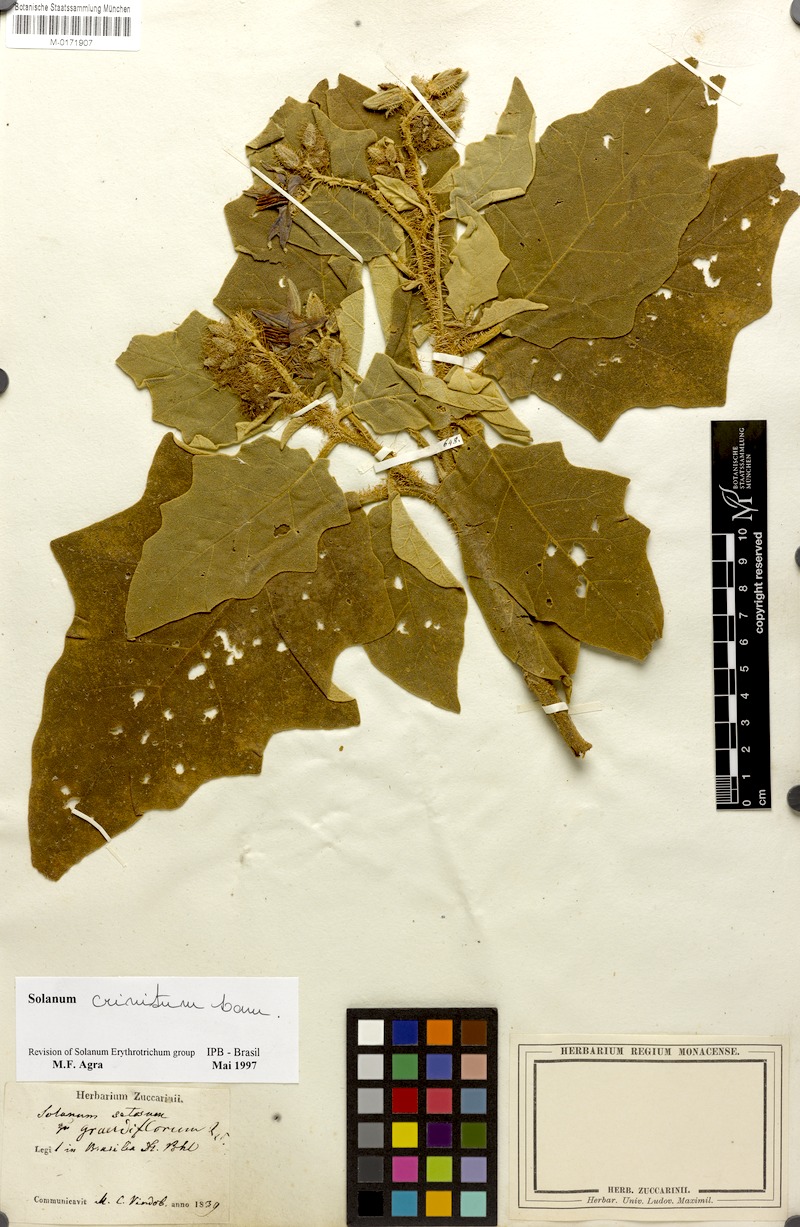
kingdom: Plantae
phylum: Tracheophyta
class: Magnoliopsida
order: Solanales
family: Solanaceae
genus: Solanum
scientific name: Solanum crinitum
